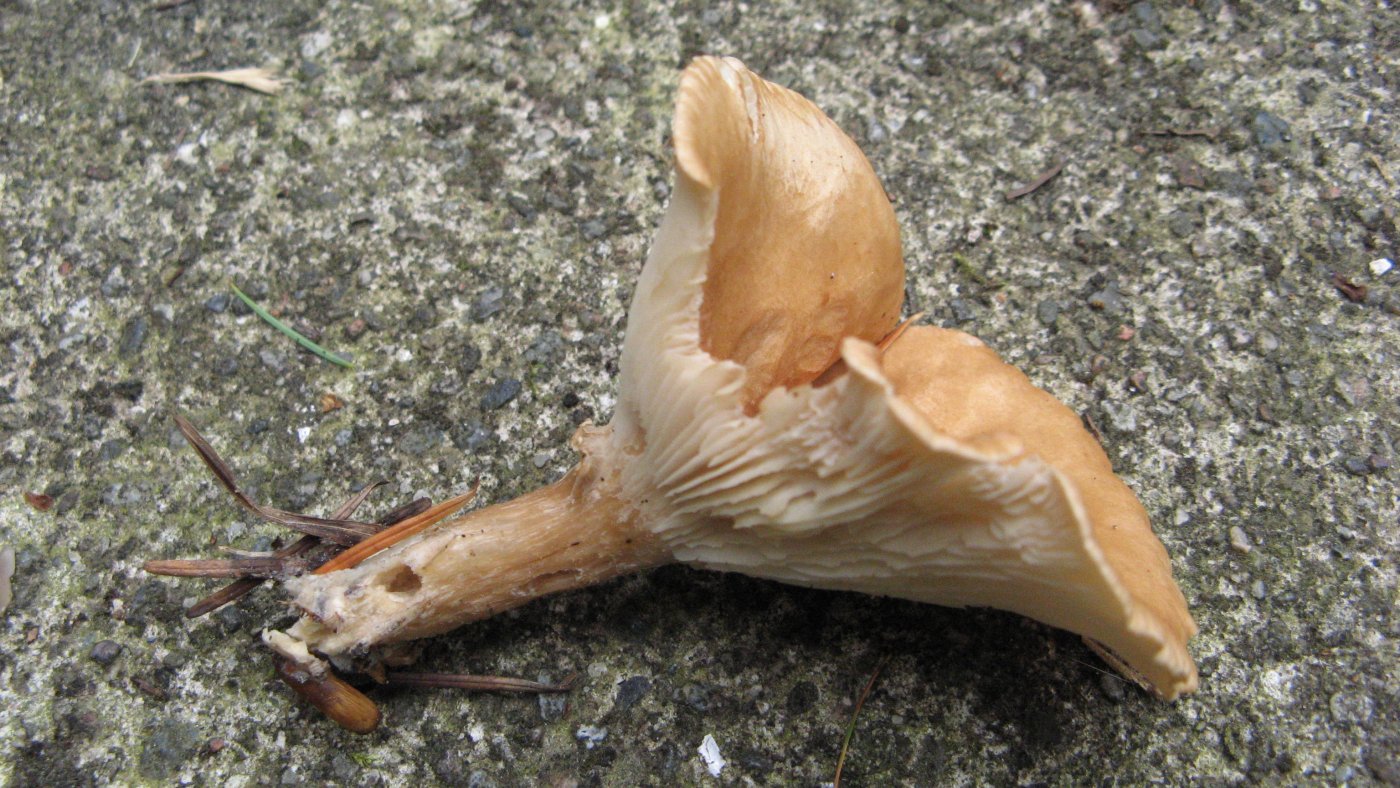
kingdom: Fungi
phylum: Basidiomycota
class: Agaricomycetes
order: Agaricales
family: Tricholomataceae
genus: Clitocybe
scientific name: Clitocybe costata
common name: brunstokket tragthat
